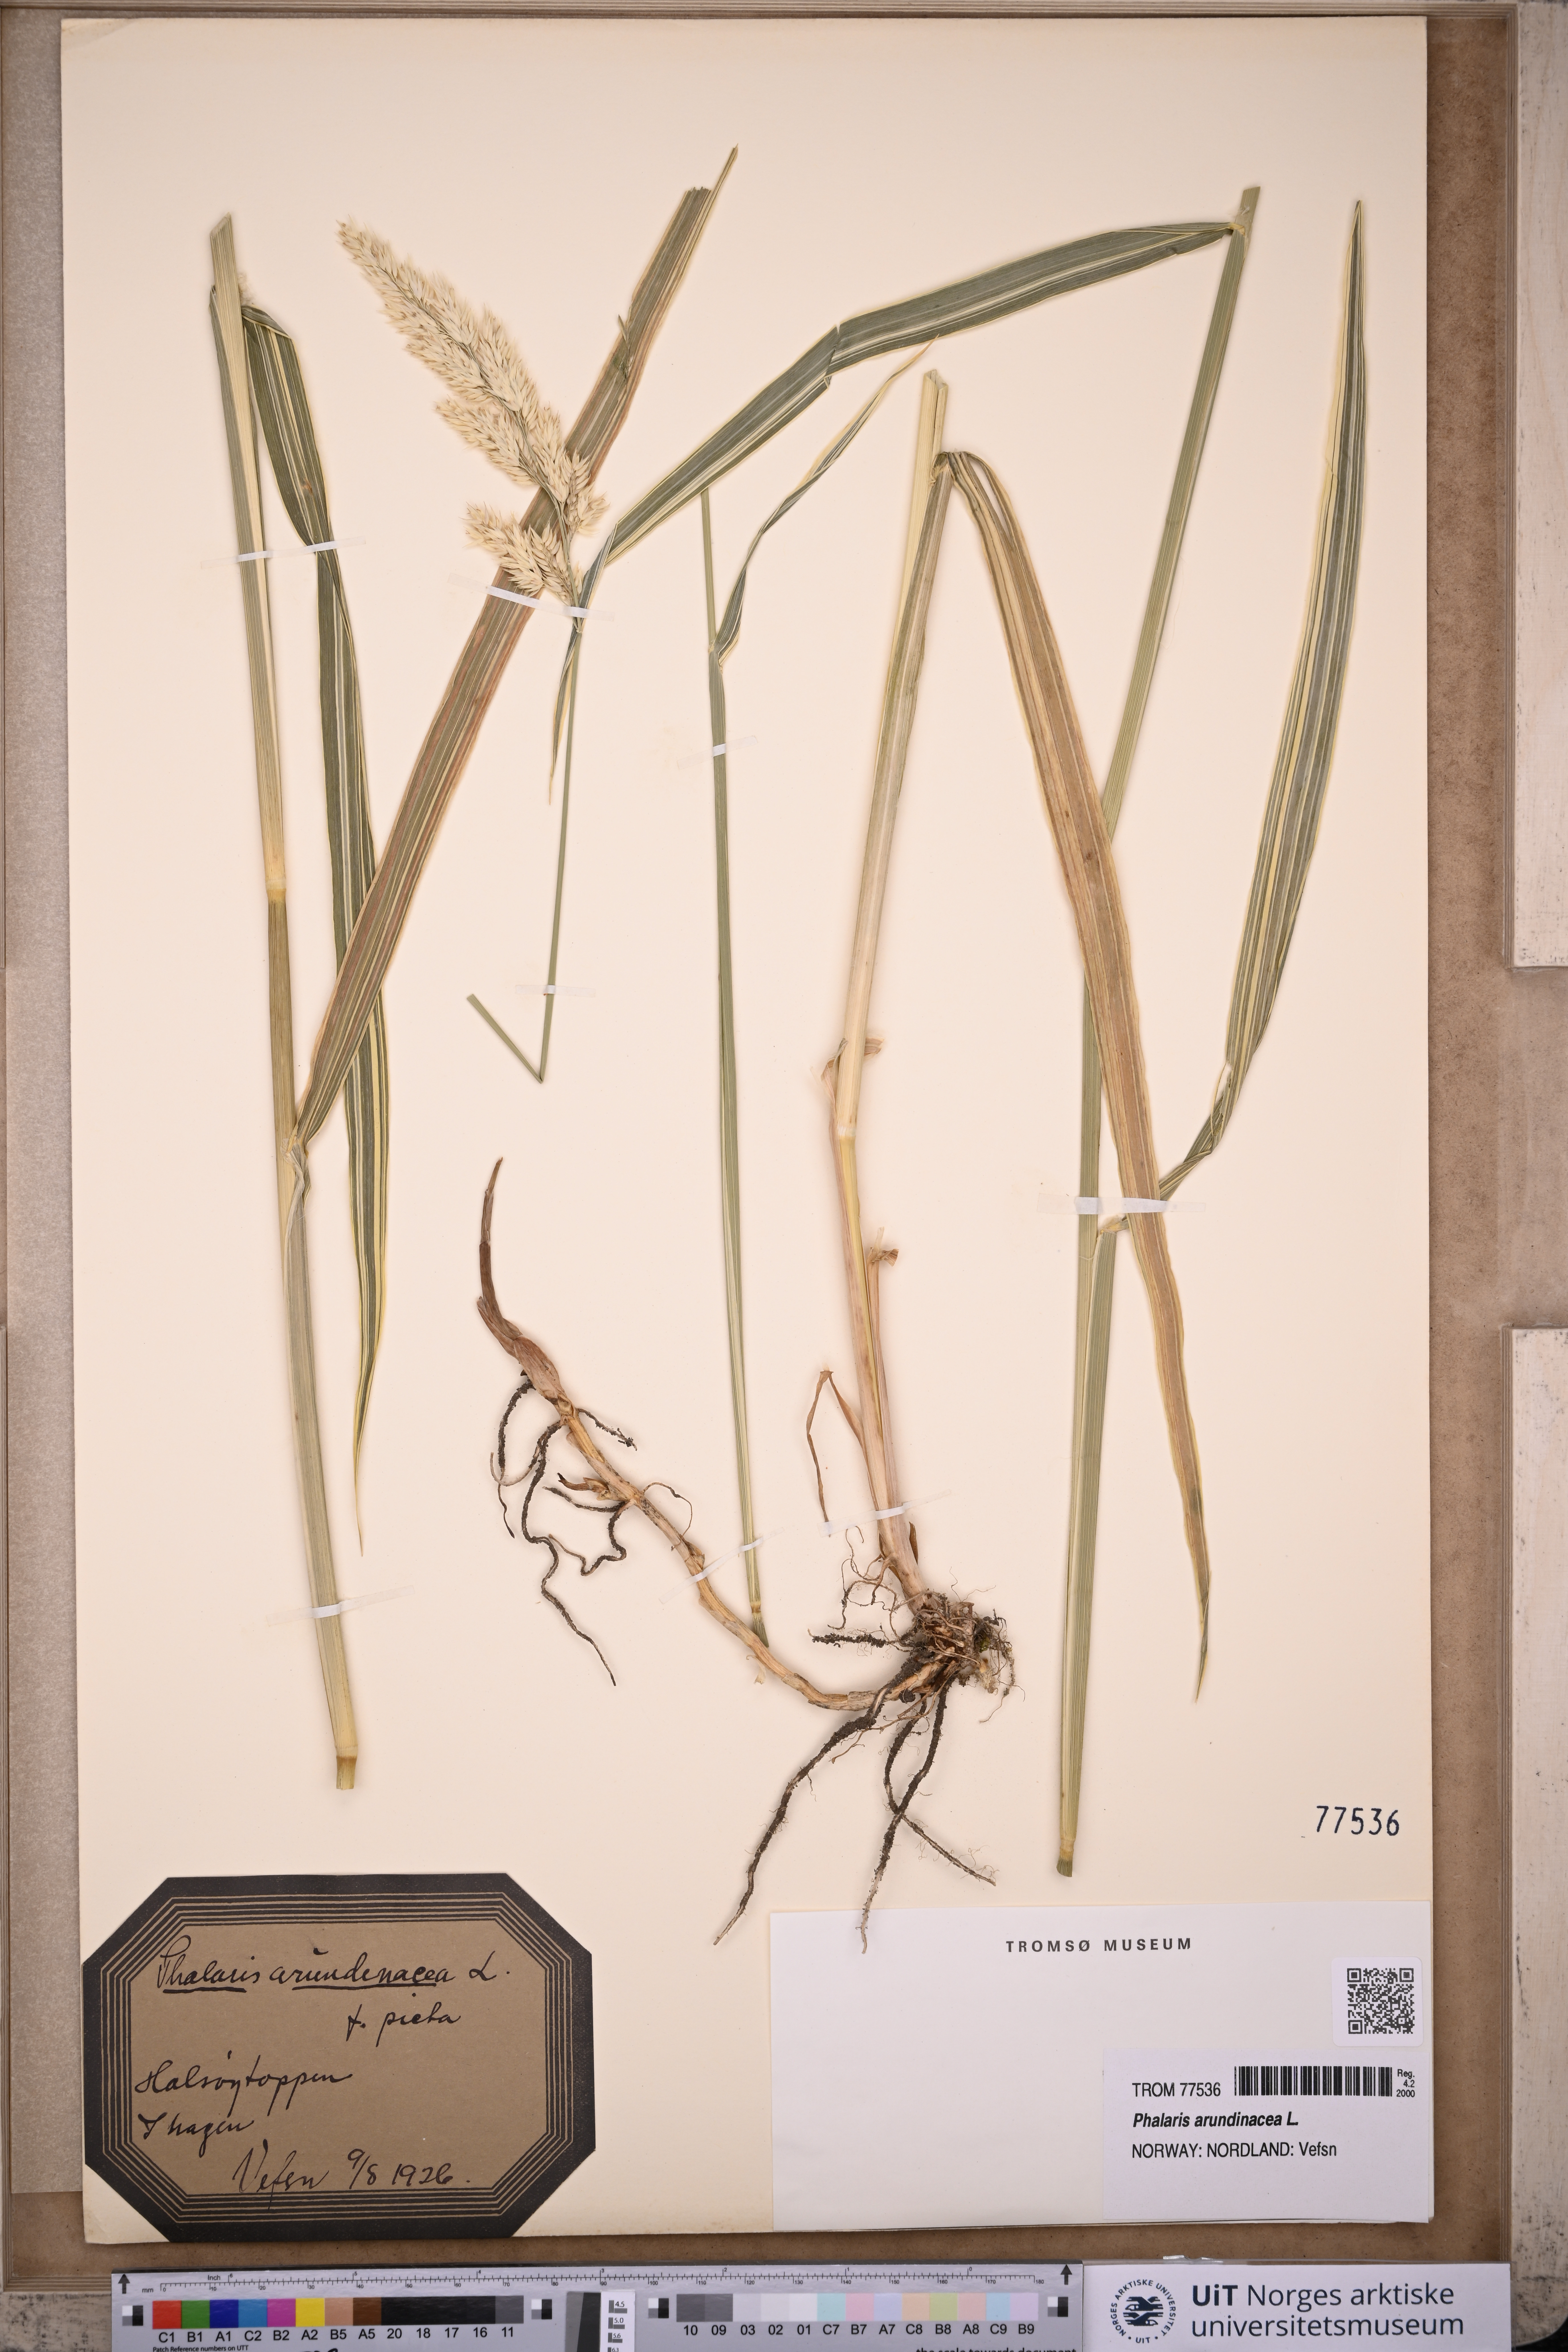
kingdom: Plantae
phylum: Tracheophyta
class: Liliopsida
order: Poales
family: Poaceae
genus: Phalaris
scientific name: Phalaris arundinacea
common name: Reed canary-grass
